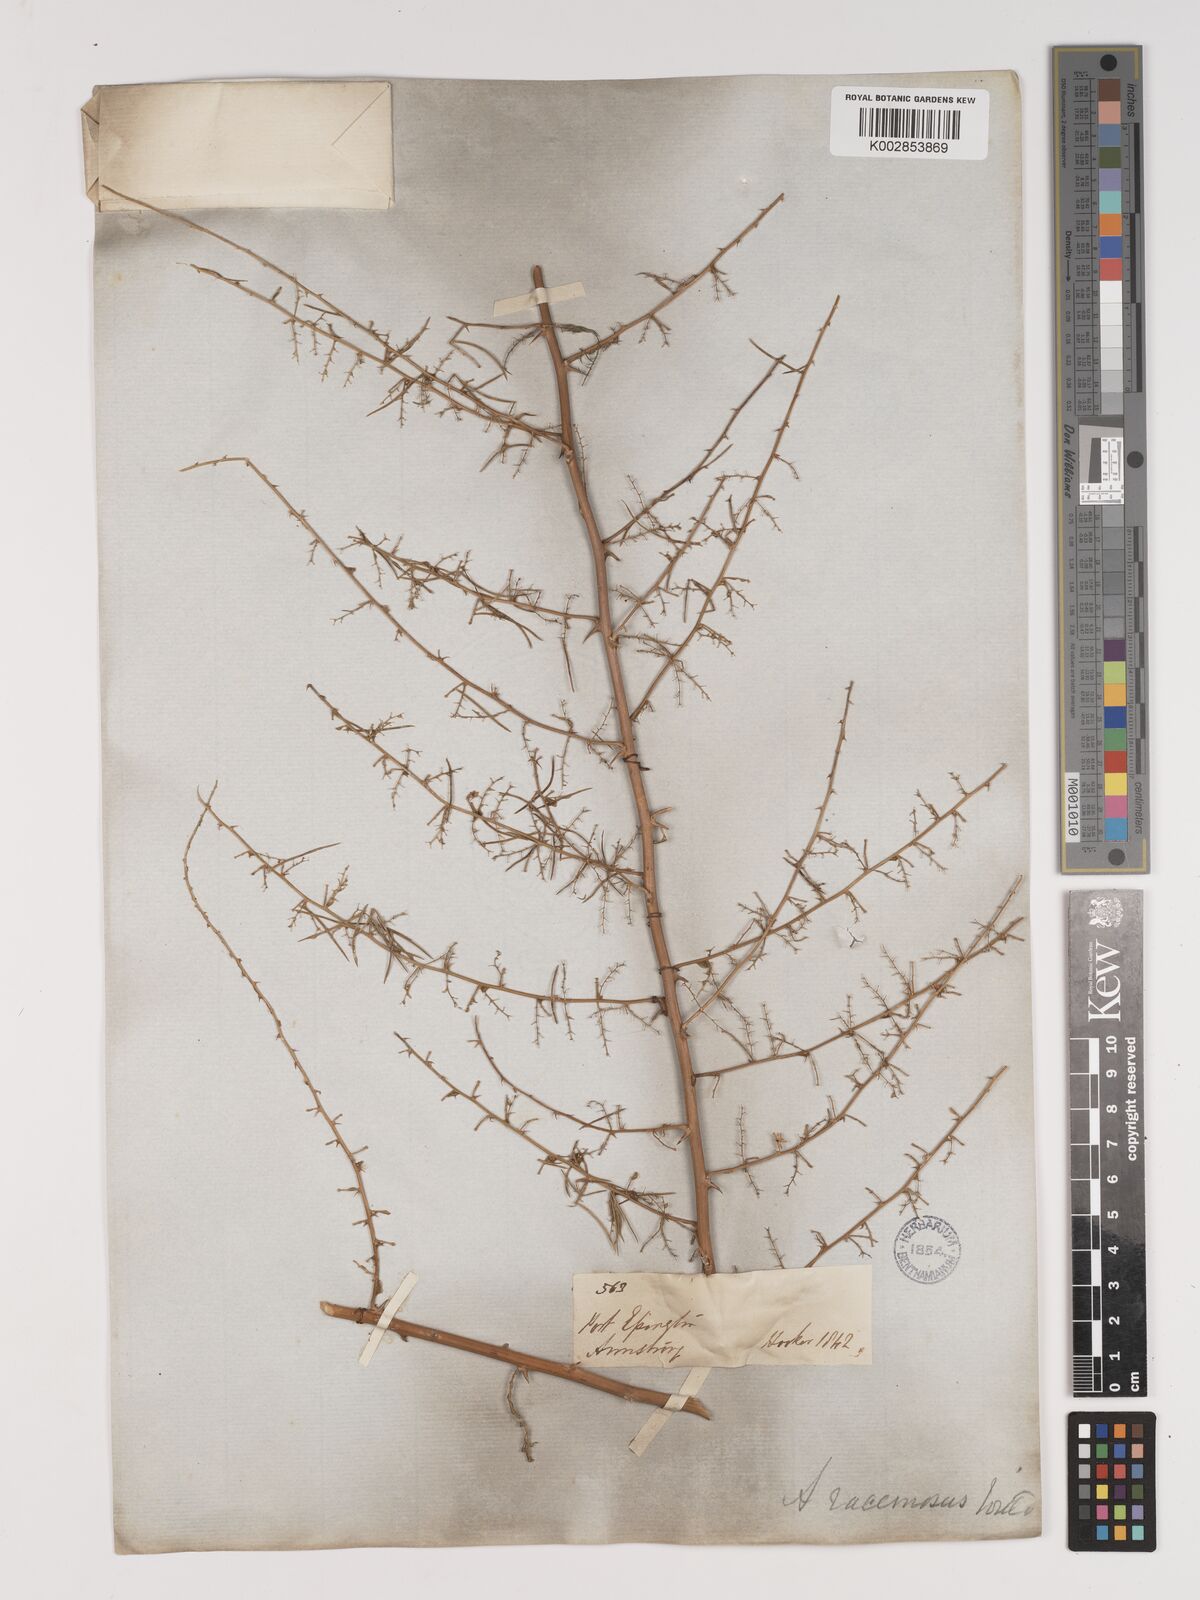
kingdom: Plantae
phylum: Tracheophyta
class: Liliopsida
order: Asparagales
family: Asparagaceae
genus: Asparagus
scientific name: Asparagus racemosus
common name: Asparagus-fern
